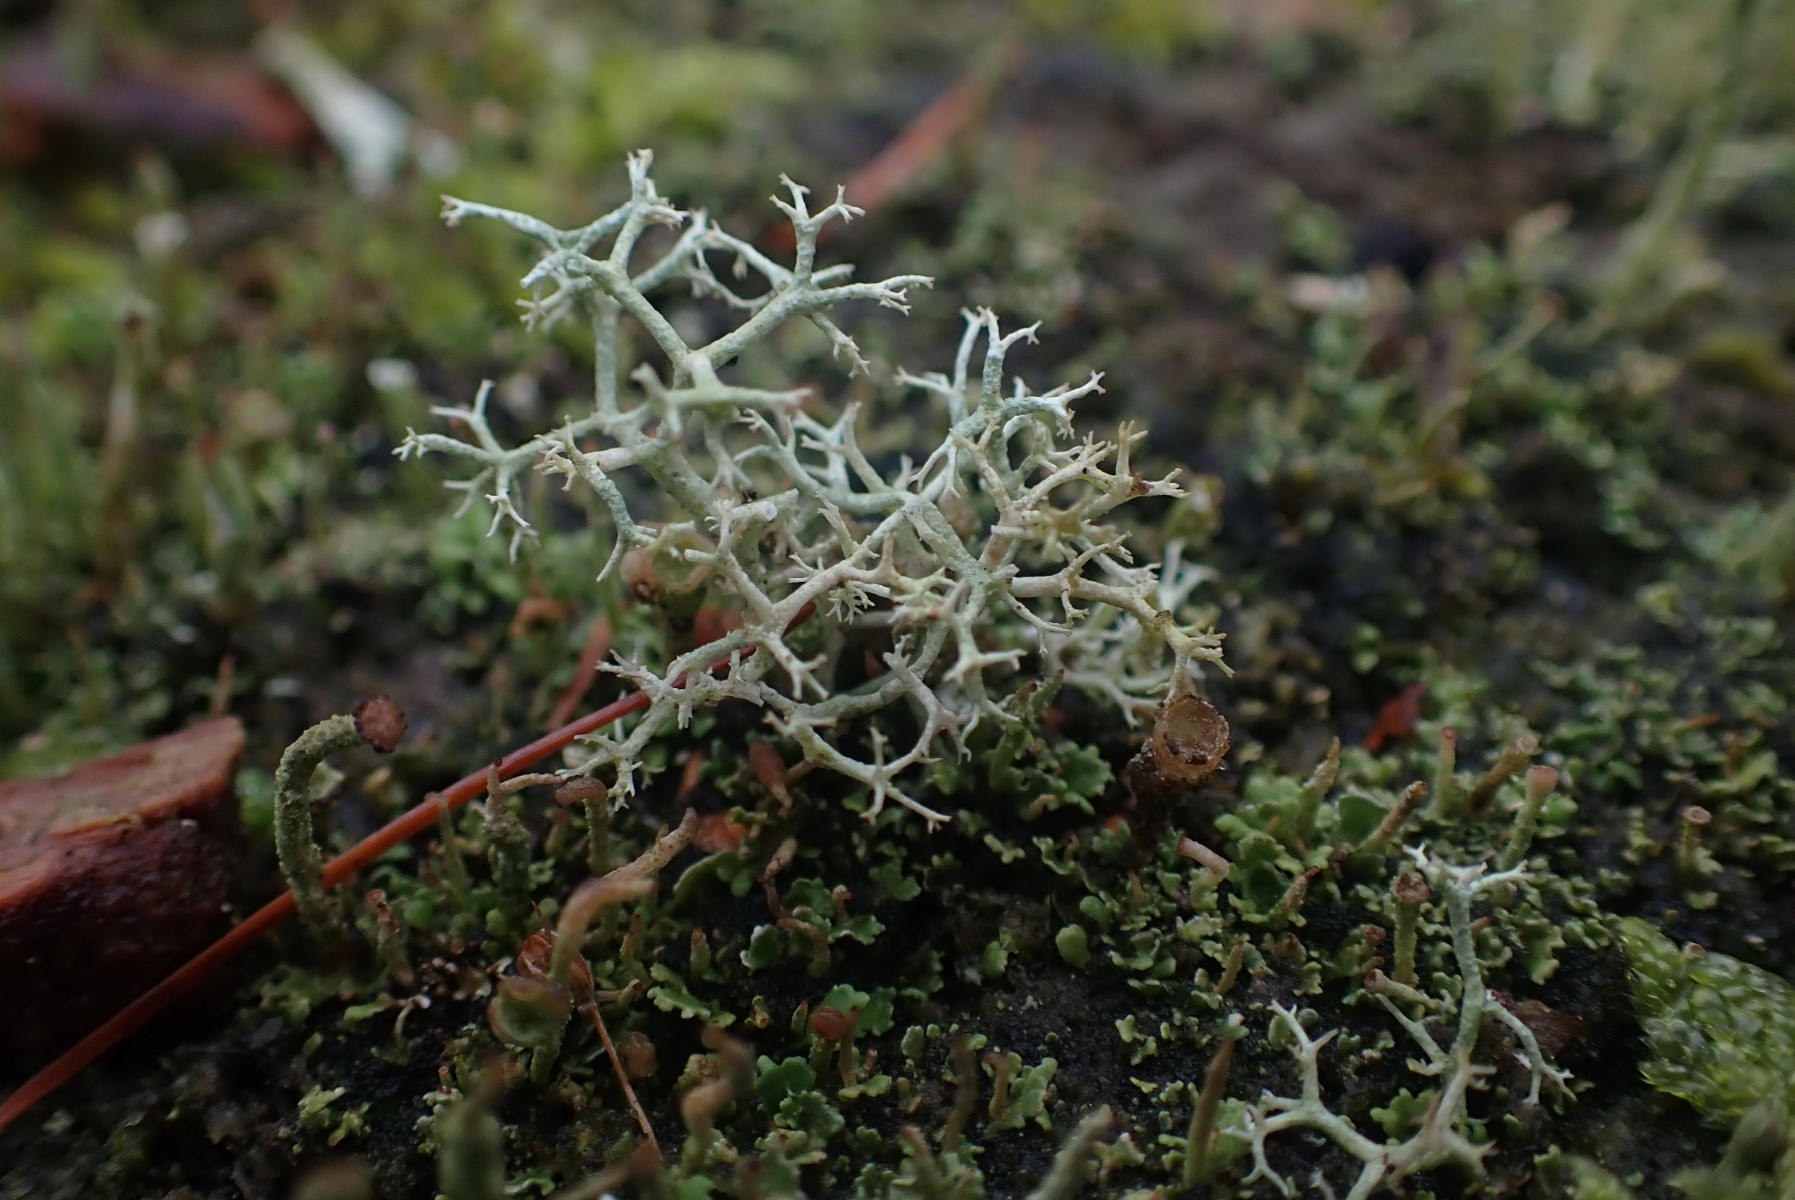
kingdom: Fungi
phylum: Ascomycota
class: Lecanoromycetes
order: Lecanorales
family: Cladoniaceae
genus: Cladonia
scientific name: Cladonia portentosa
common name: hede-rensdyrlav
